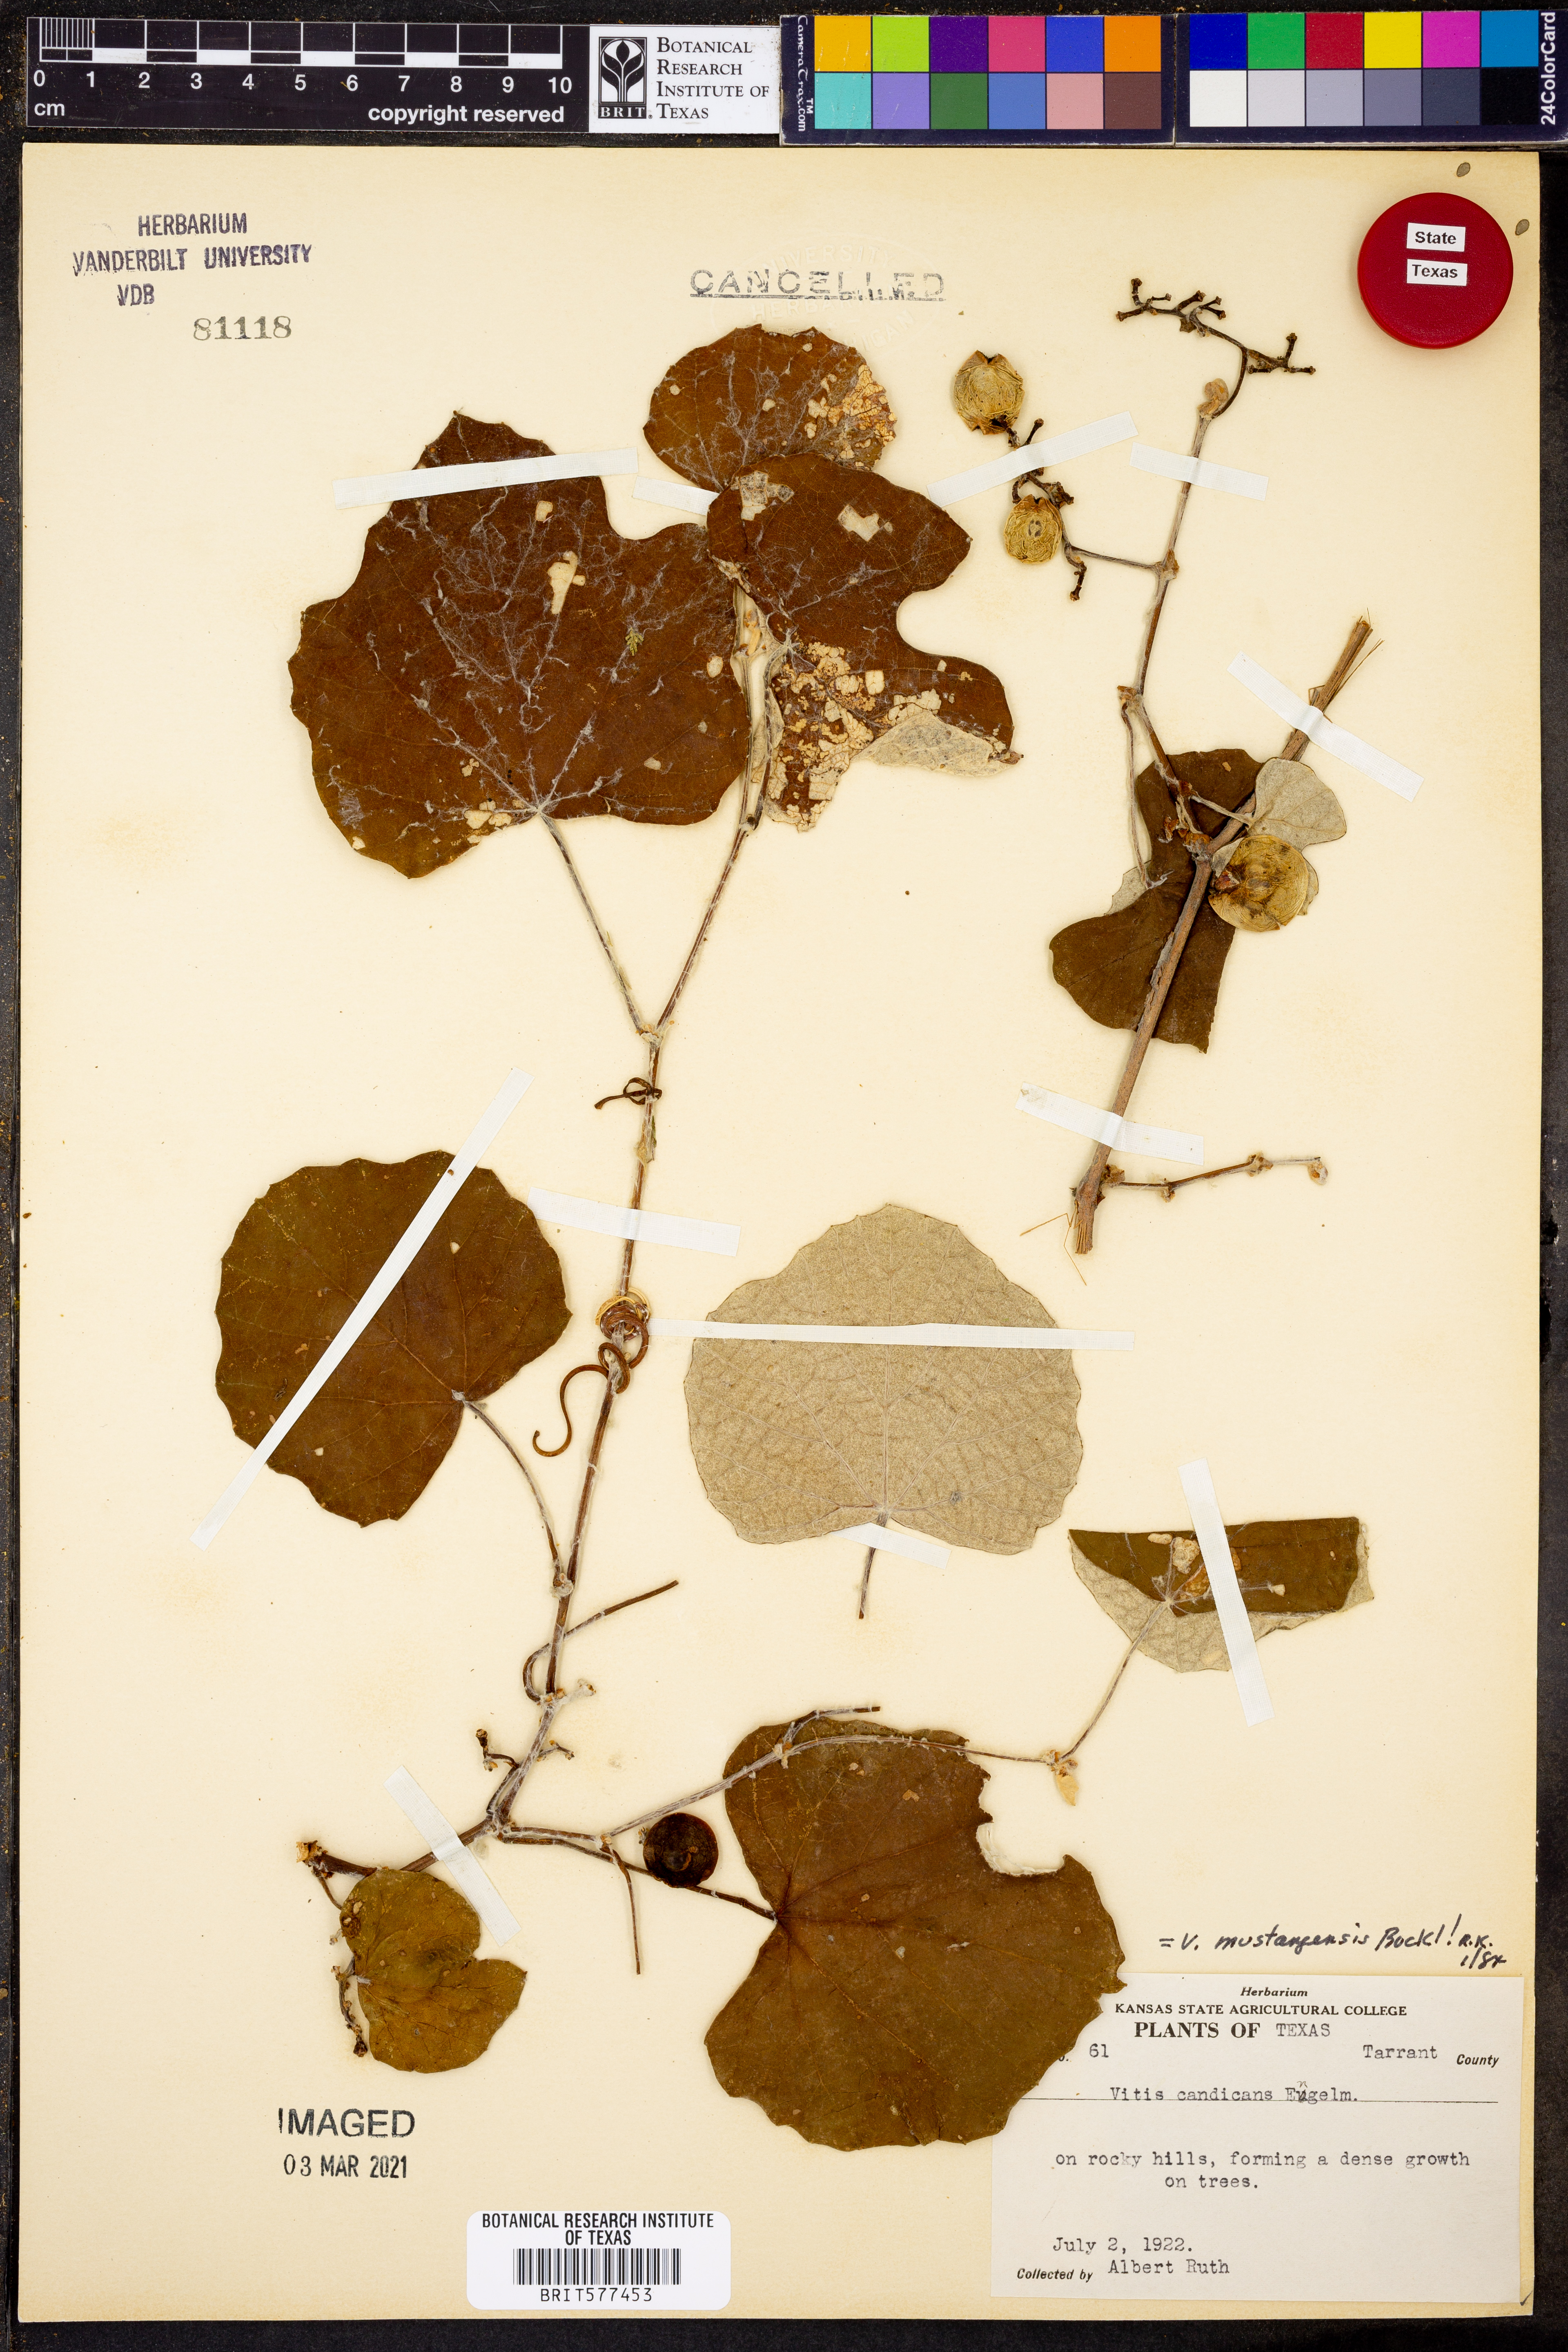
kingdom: Plantae
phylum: Tracheophyta
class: Magnoliopsida
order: Vitales
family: Vitaceae
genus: Vitis
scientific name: Vitis mustangensis
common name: Mustang grape
